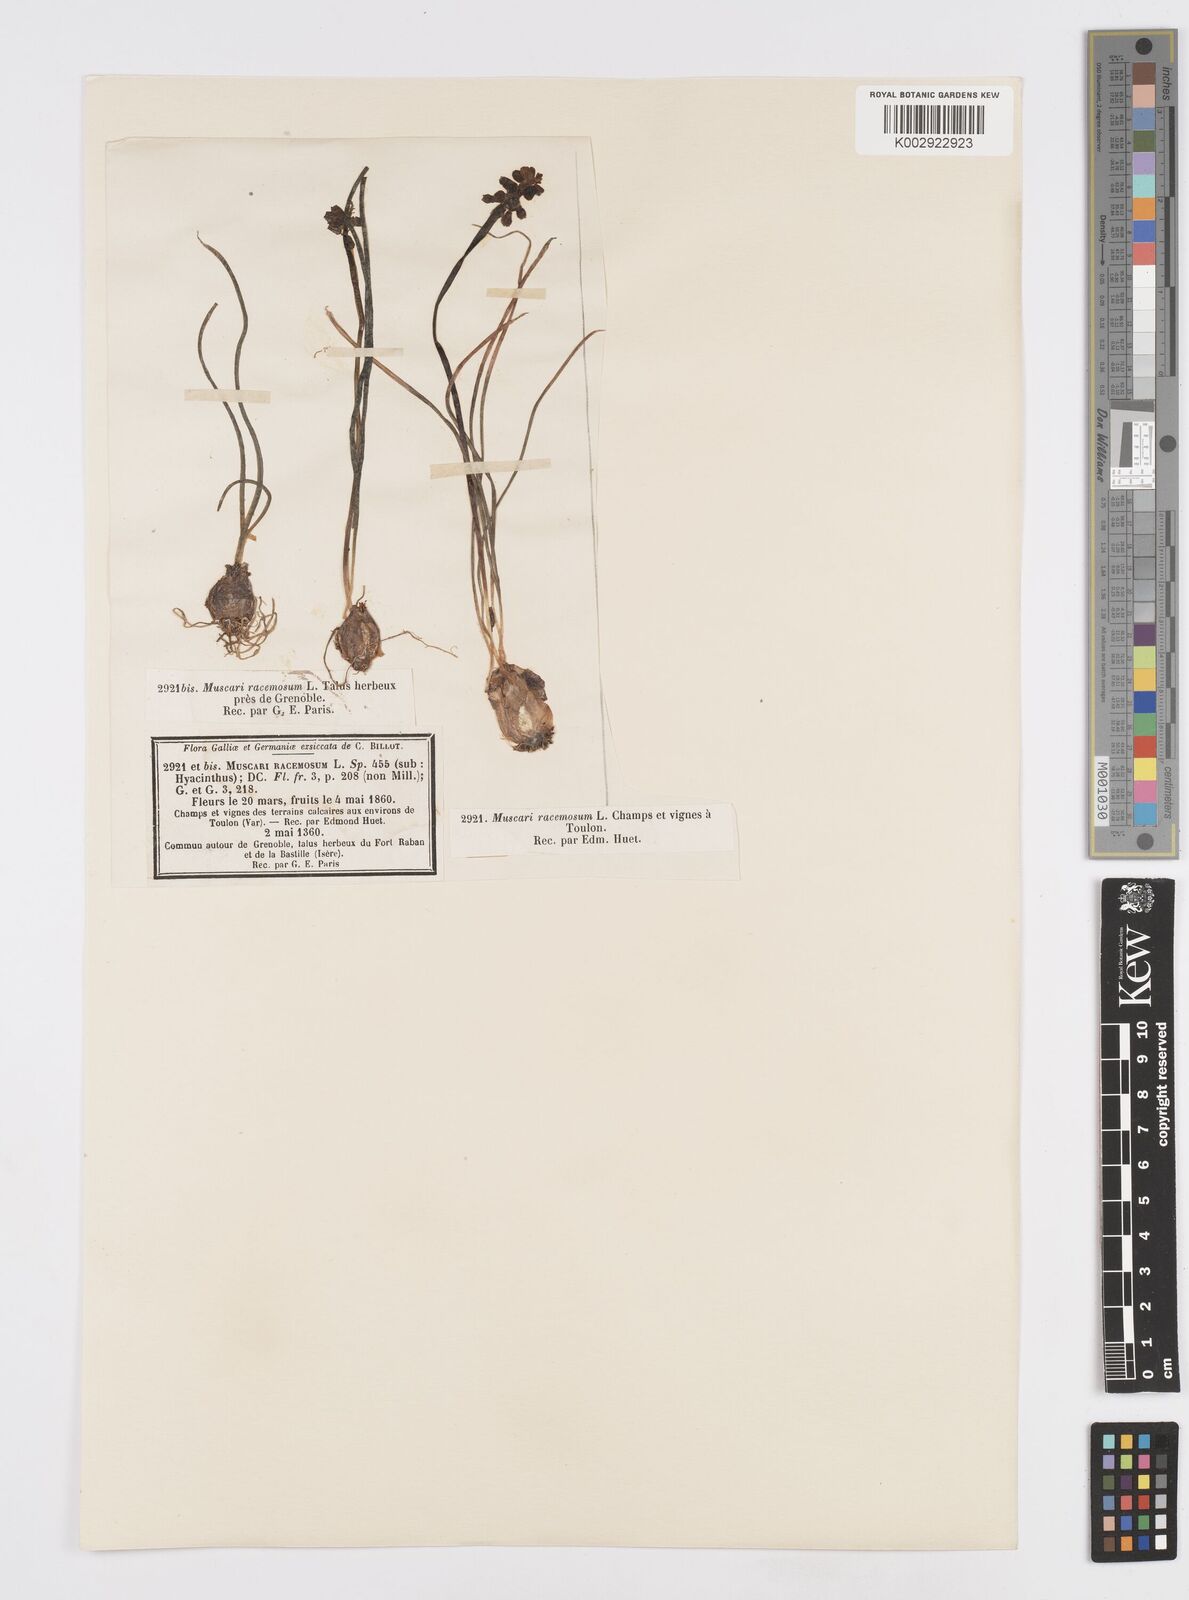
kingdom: Plantae
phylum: Tracheophyta
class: Liliopsida
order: Asparagales
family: Asparagaceae
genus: Muscarimia
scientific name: Muscarimia muscari
